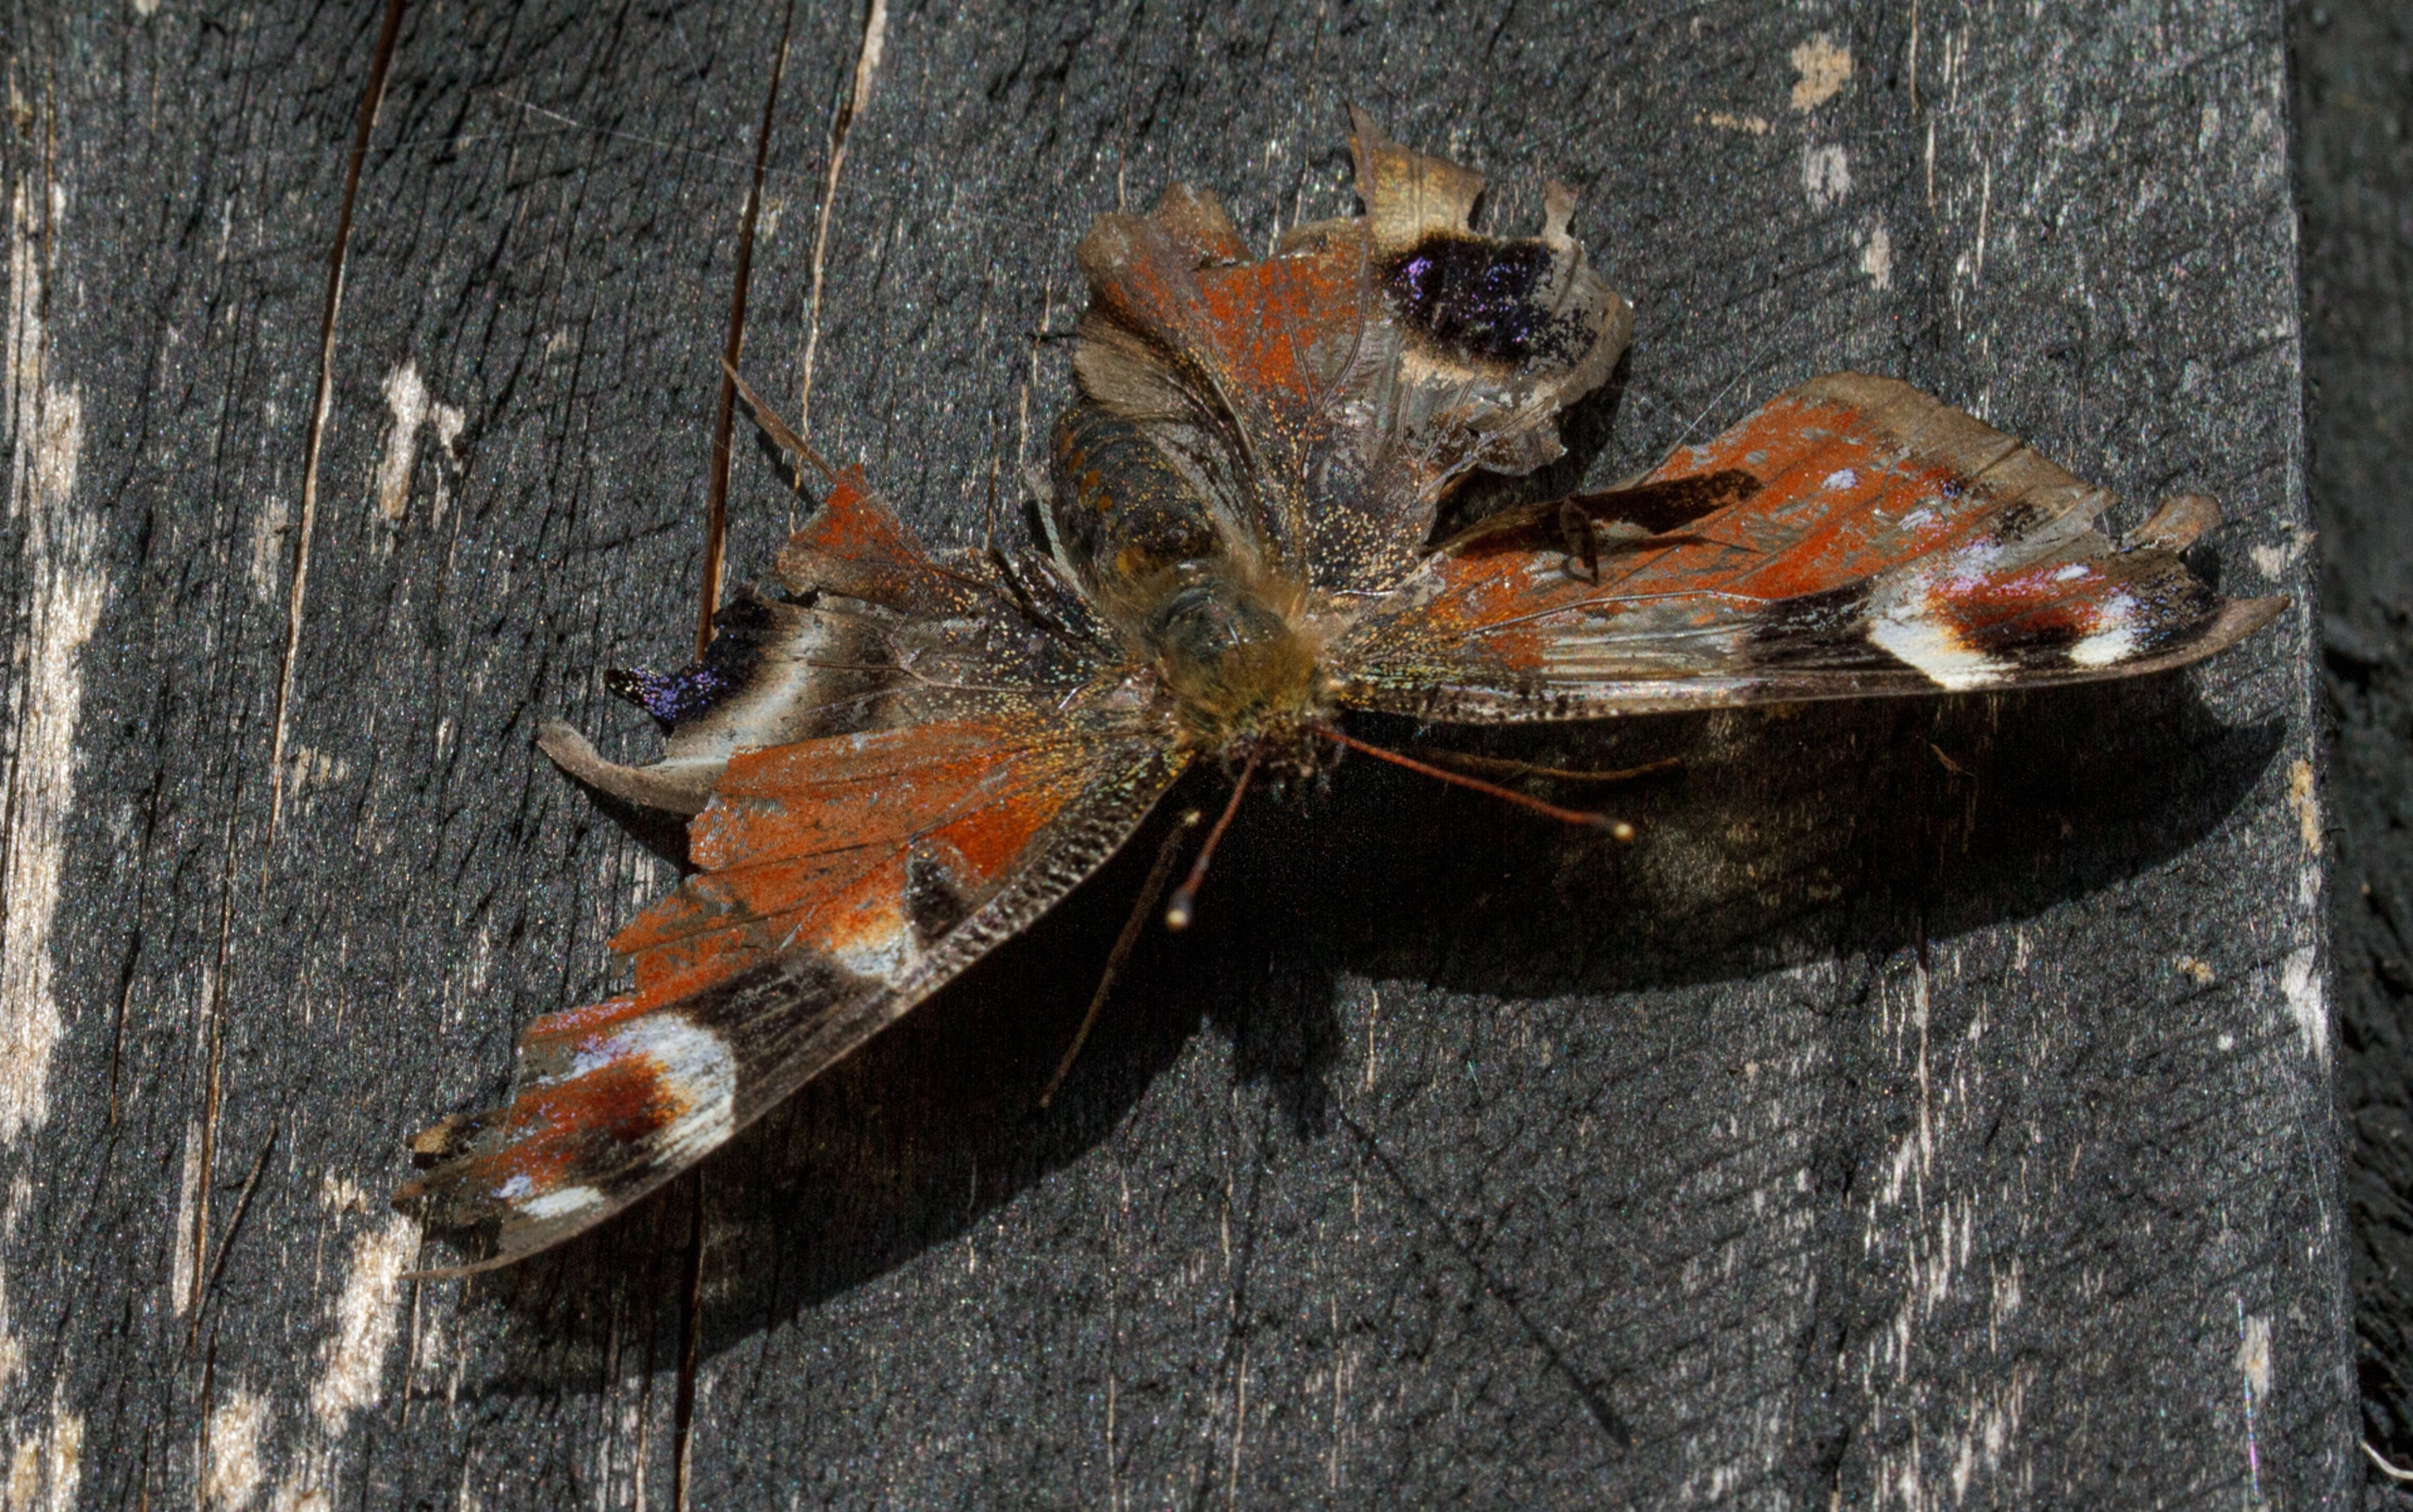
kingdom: Animalia
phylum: Arthropoda
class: Insecta
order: Lepidoptera
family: Nymphalidae
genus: Aglais
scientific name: Aglais io
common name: Dagpåfugleøje
